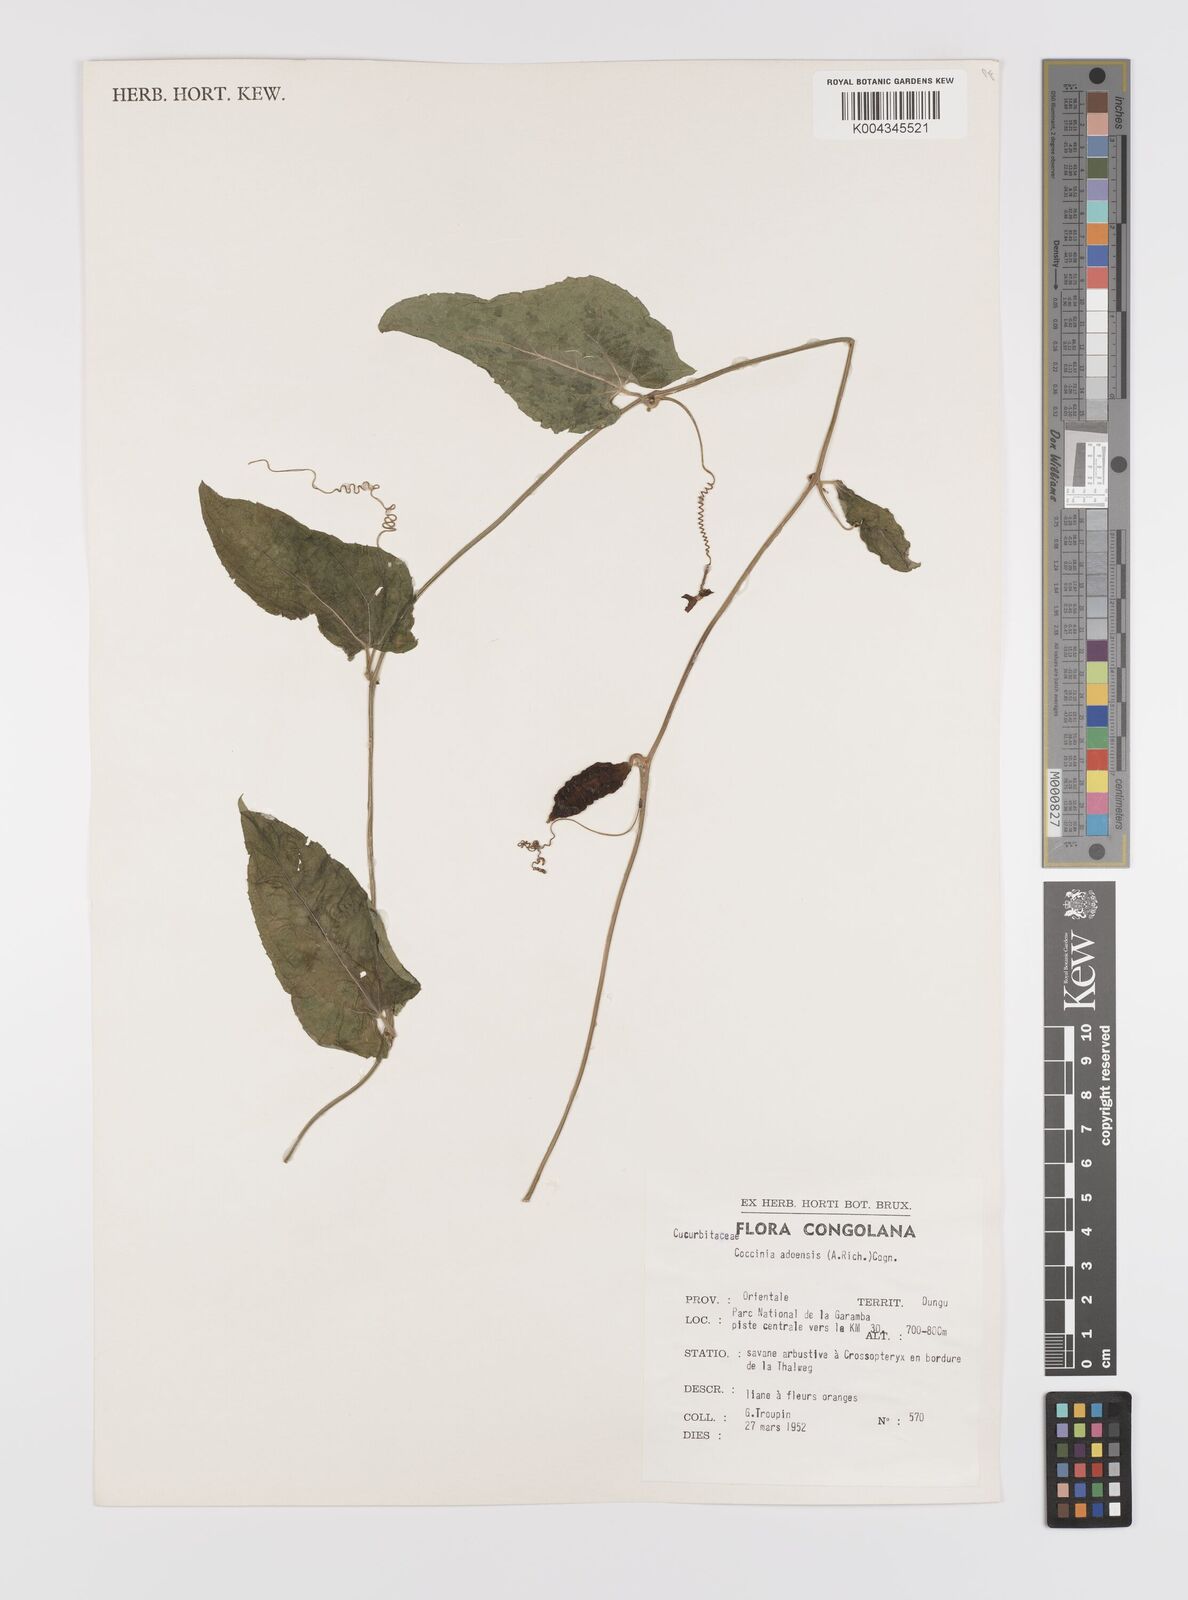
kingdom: Plantae
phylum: Tracheophyta
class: Magnoliopsida
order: Cucurbitales
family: Cucurbitaceae
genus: Coccinia
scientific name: Coccinia adoensis
